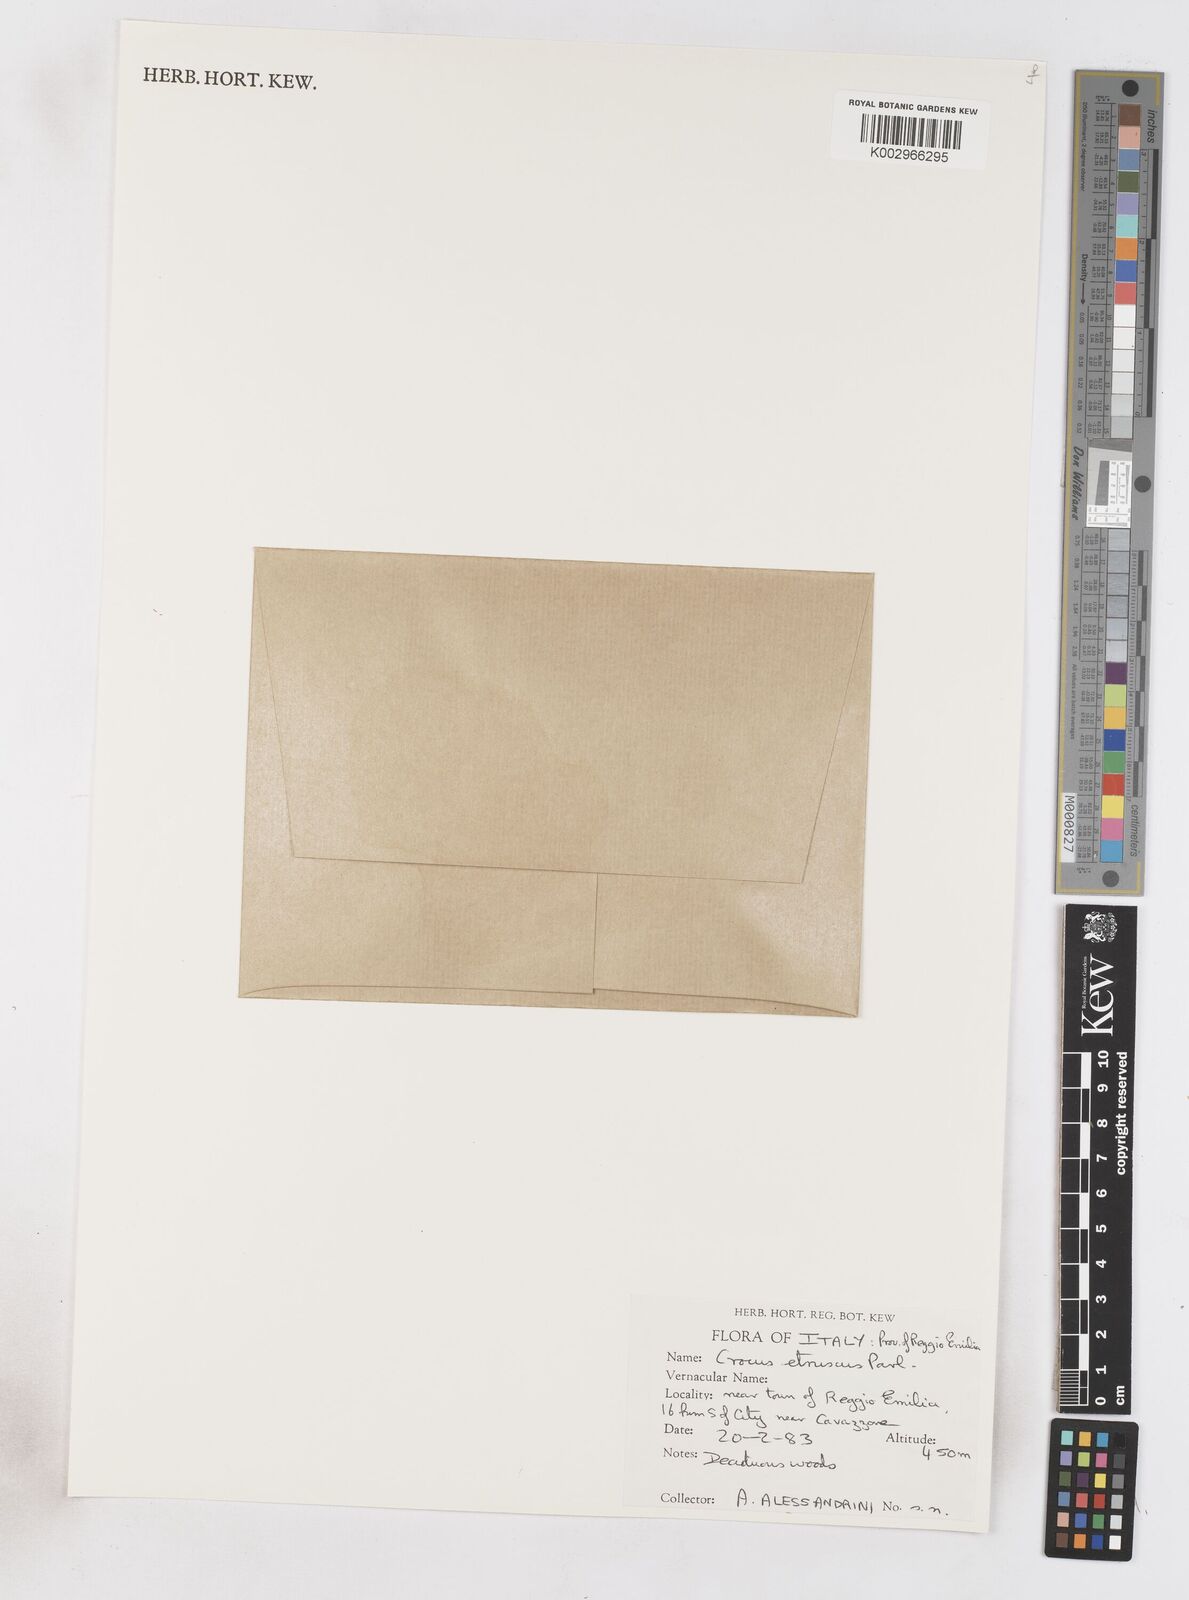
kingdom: Plantae
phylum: Tracheophyta
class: Liliopsida
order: Asparagales
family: Iridaceae
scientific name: Iridaceae
